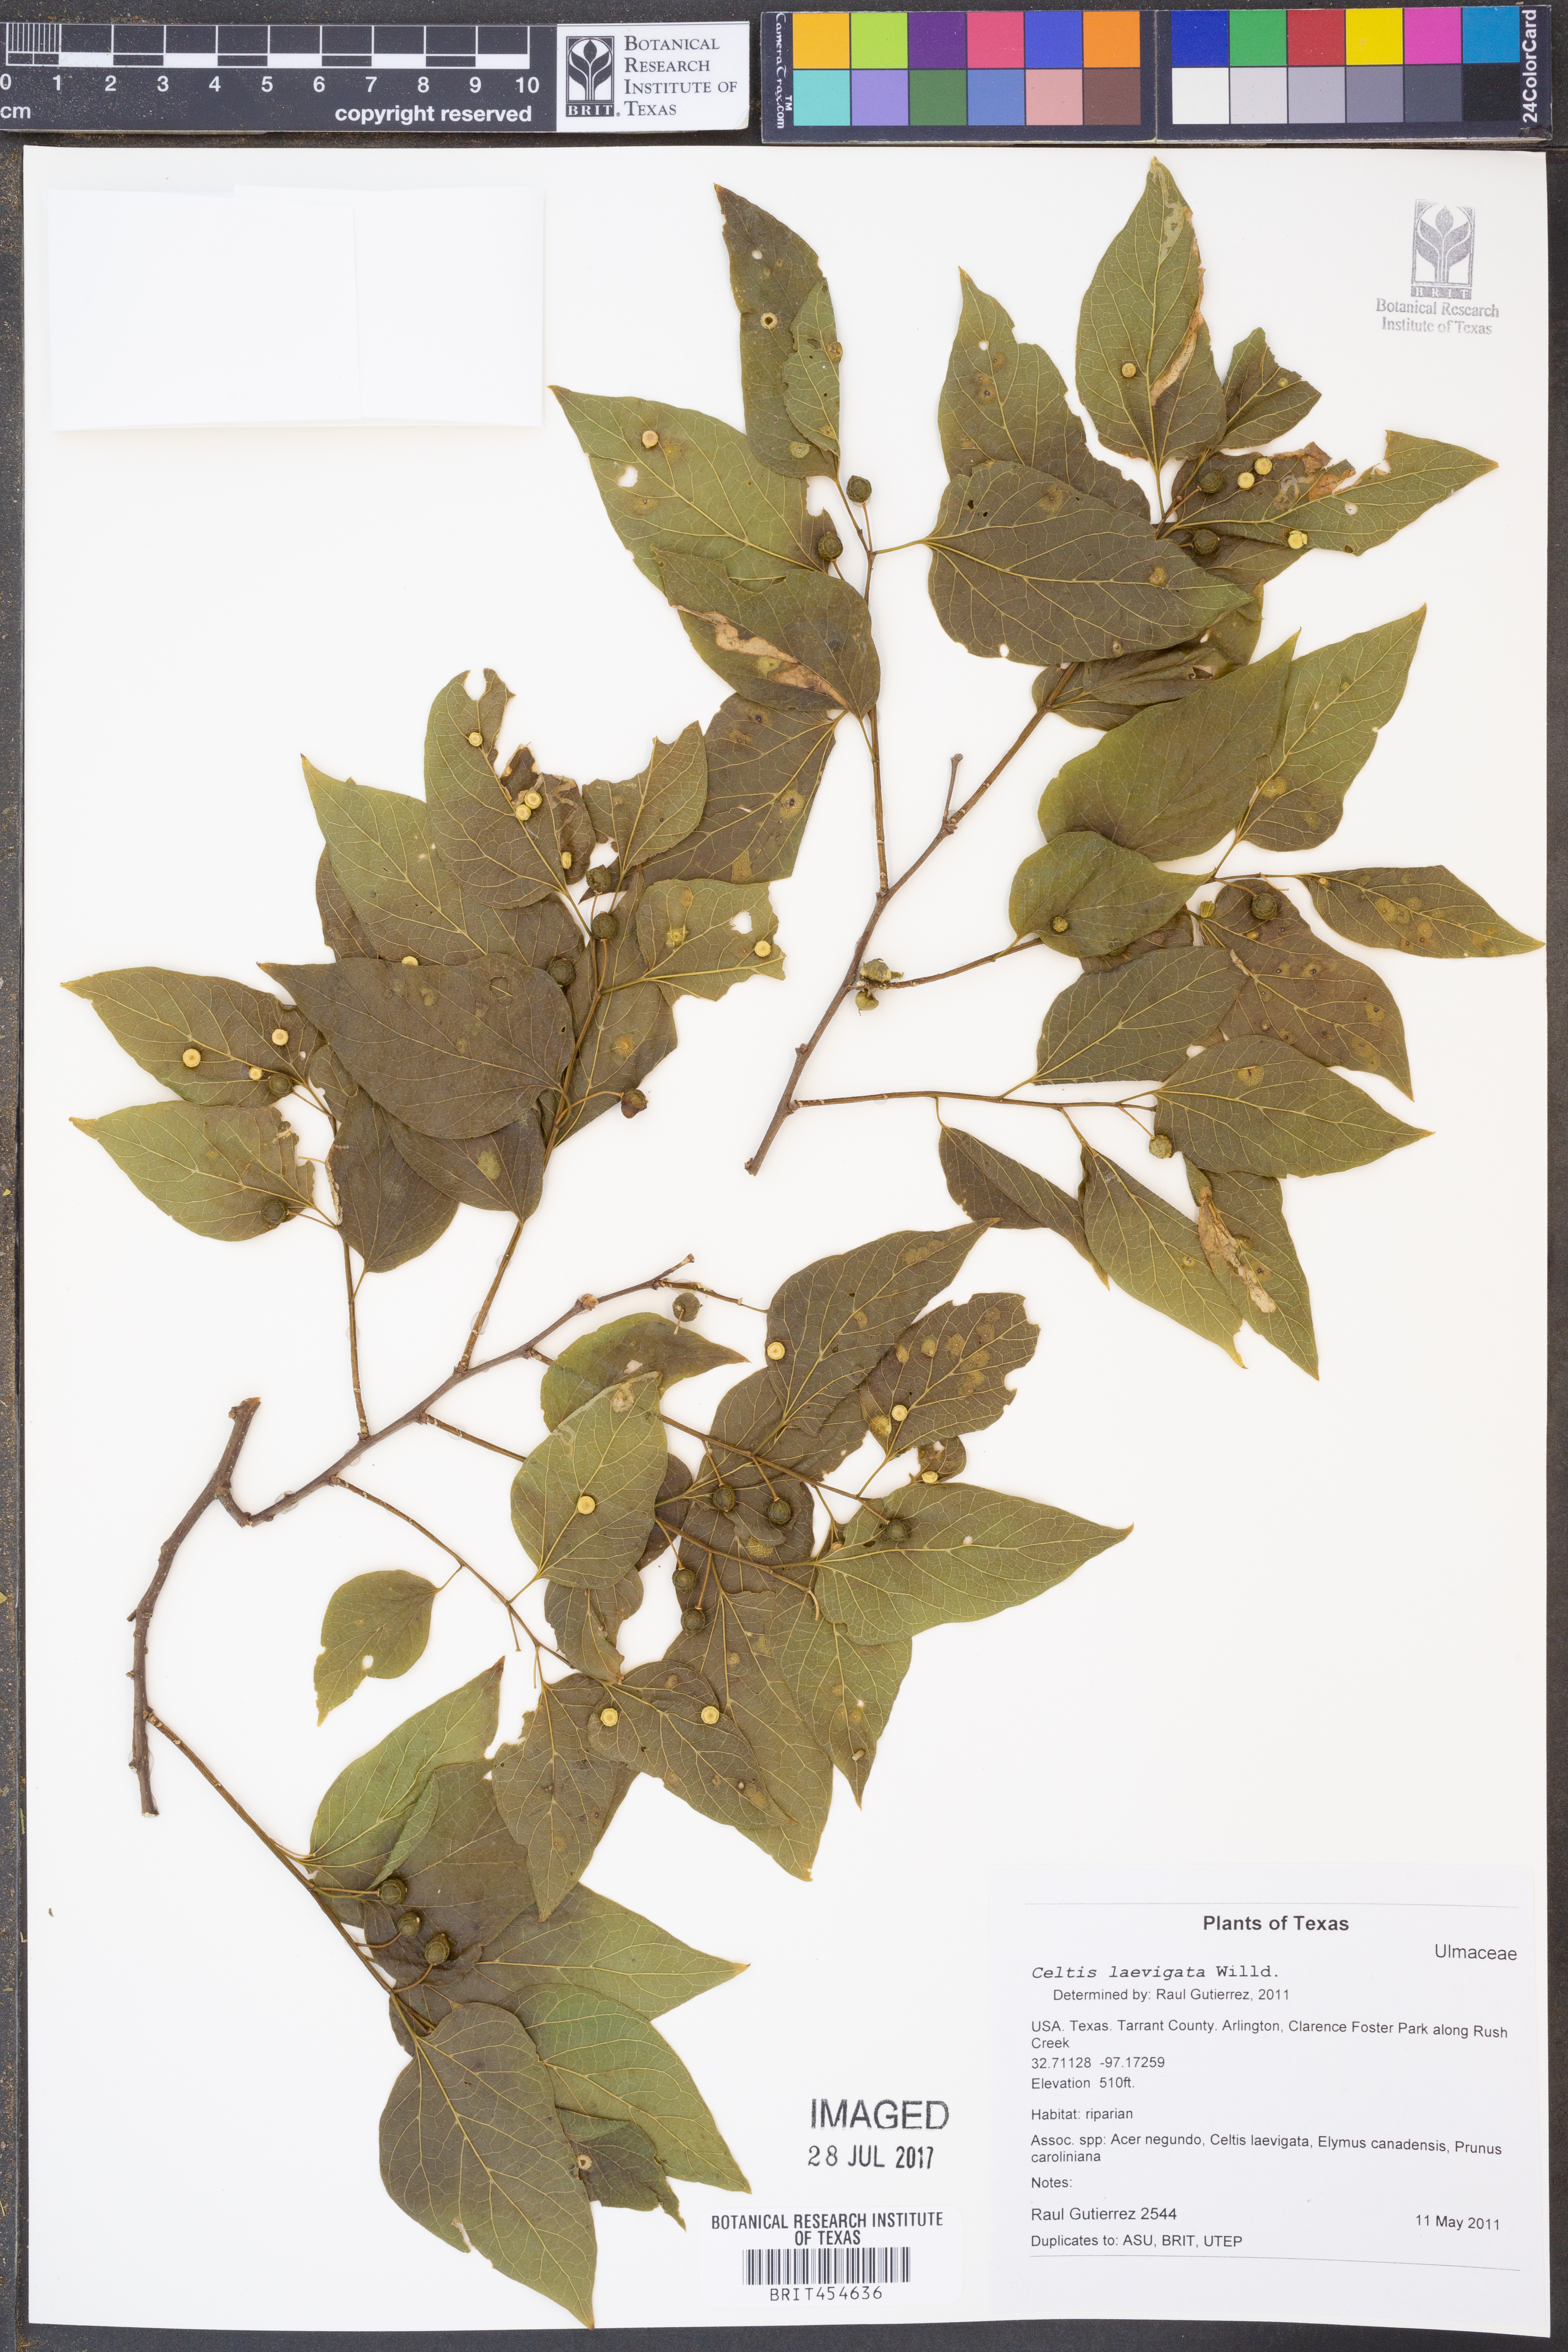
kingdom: Plantae
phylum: Tracheophyta
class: Magnoliopsida
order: Rosales
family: Cannabaceae
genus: Celtis
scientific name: Celtis laevigata
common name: Sugarberry
